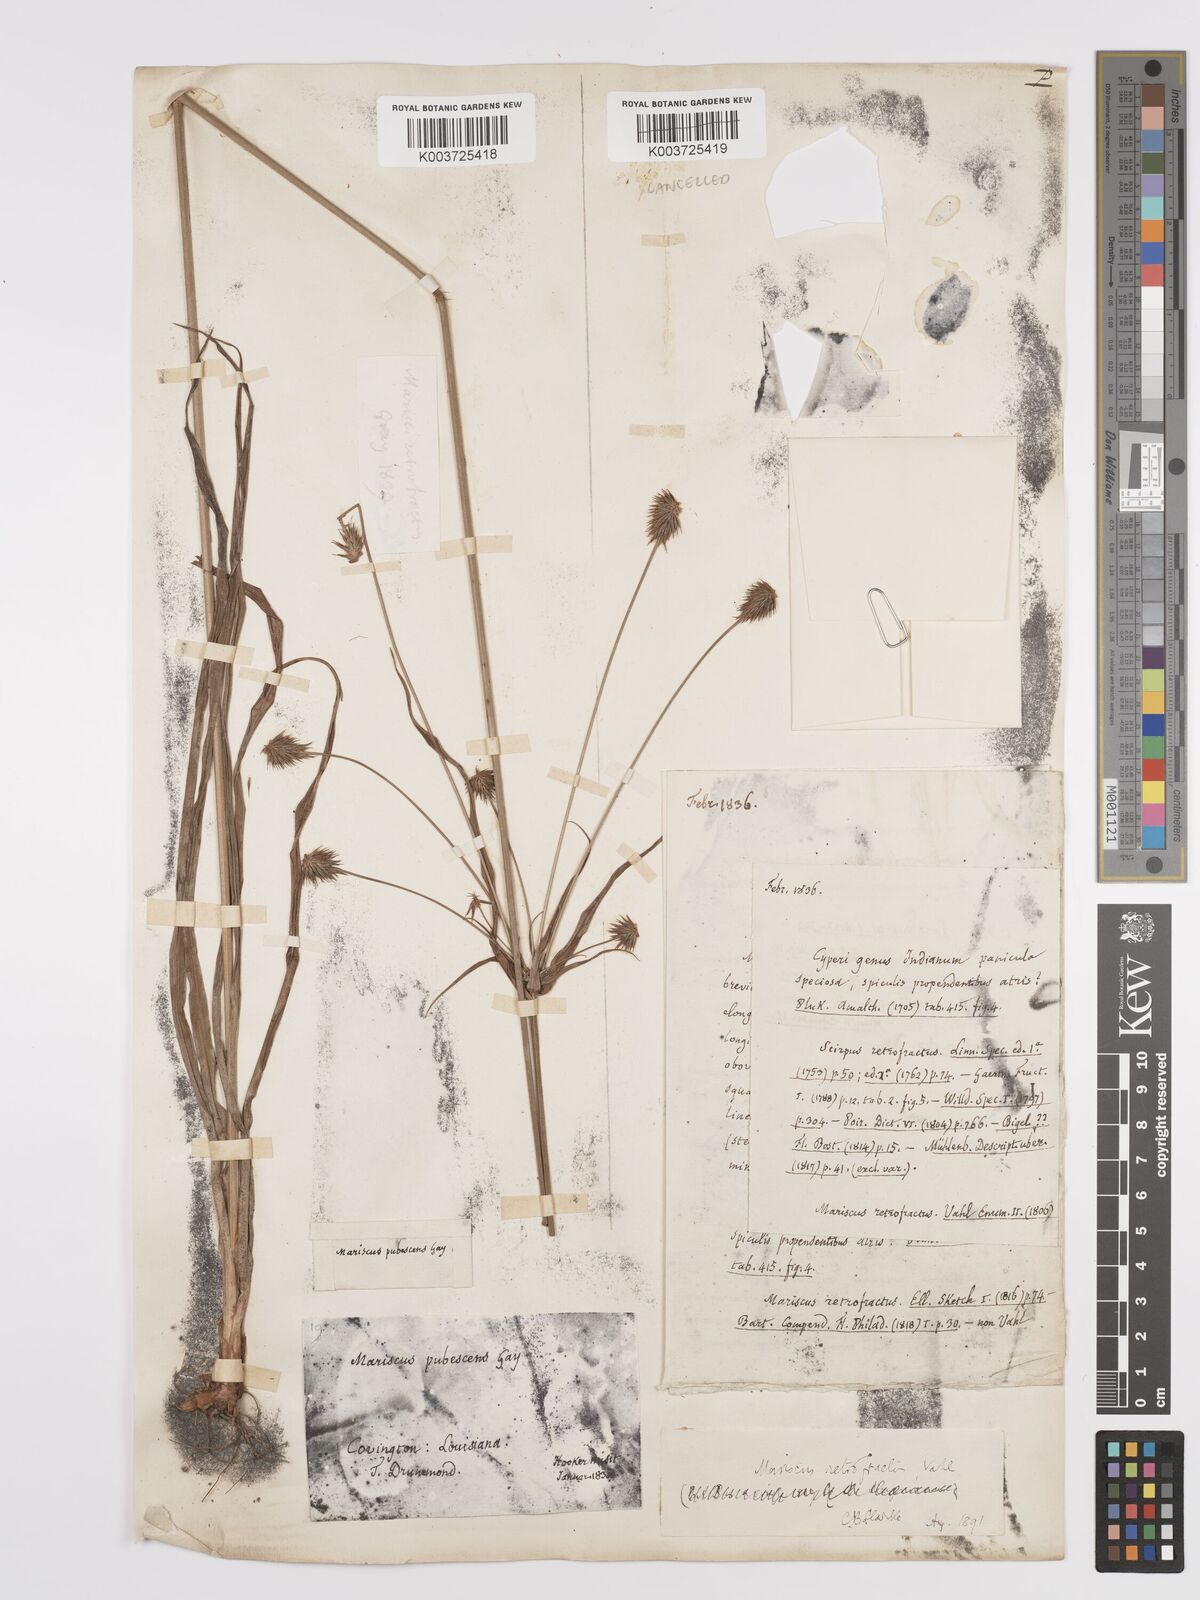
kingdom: Plantae
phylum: Tracheophyta
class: Liliopsida
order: Poales
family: Cyperaceae
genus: Cyperus
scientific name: Cyperus retrofractus
